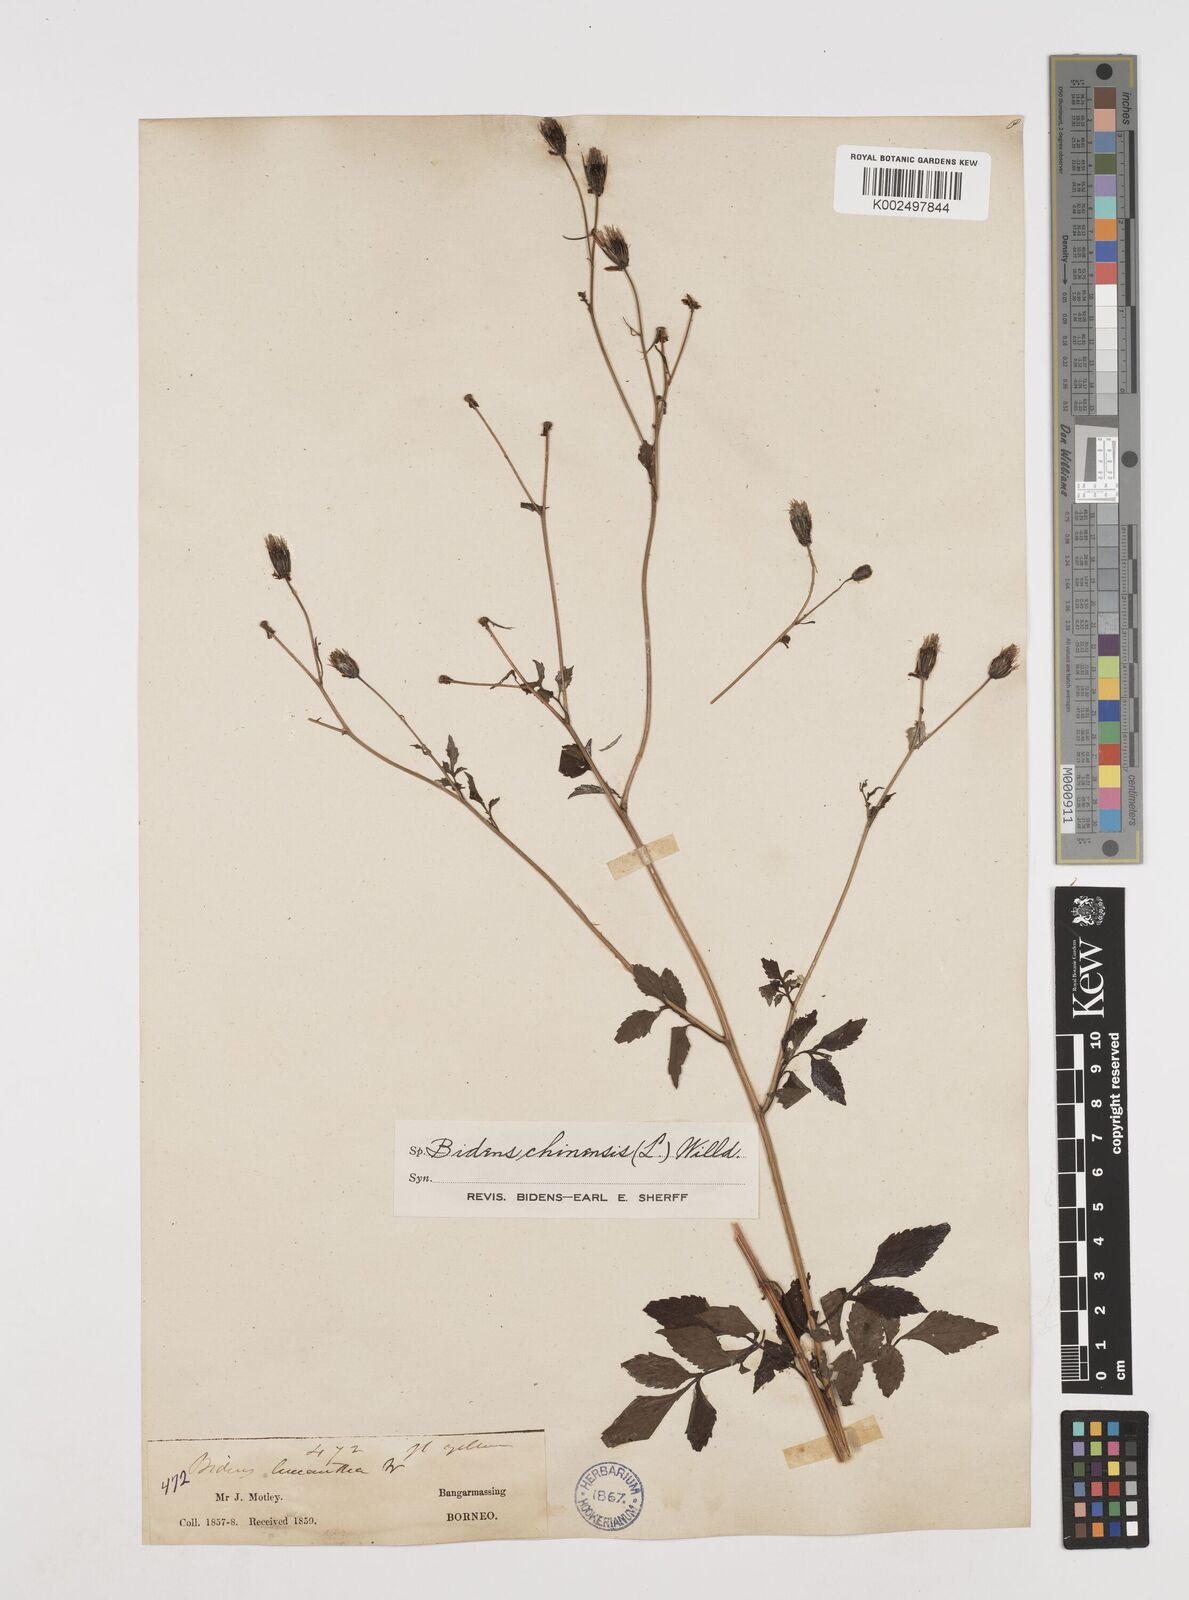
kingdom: Plantae
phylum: Tracheophyta
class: Magnoliopsida
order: Asterales
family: Asteraceae
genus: Bidens
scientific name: Bidens biternata
